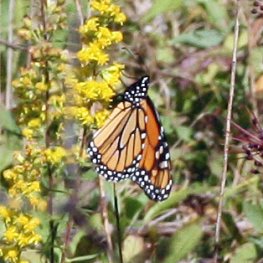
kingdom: Animalia
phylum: Arthropoda
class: Insecta
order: Lepidoptera
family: Nymphalidae
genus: Danaus
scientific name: Danaus plexippus
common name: Monarch
